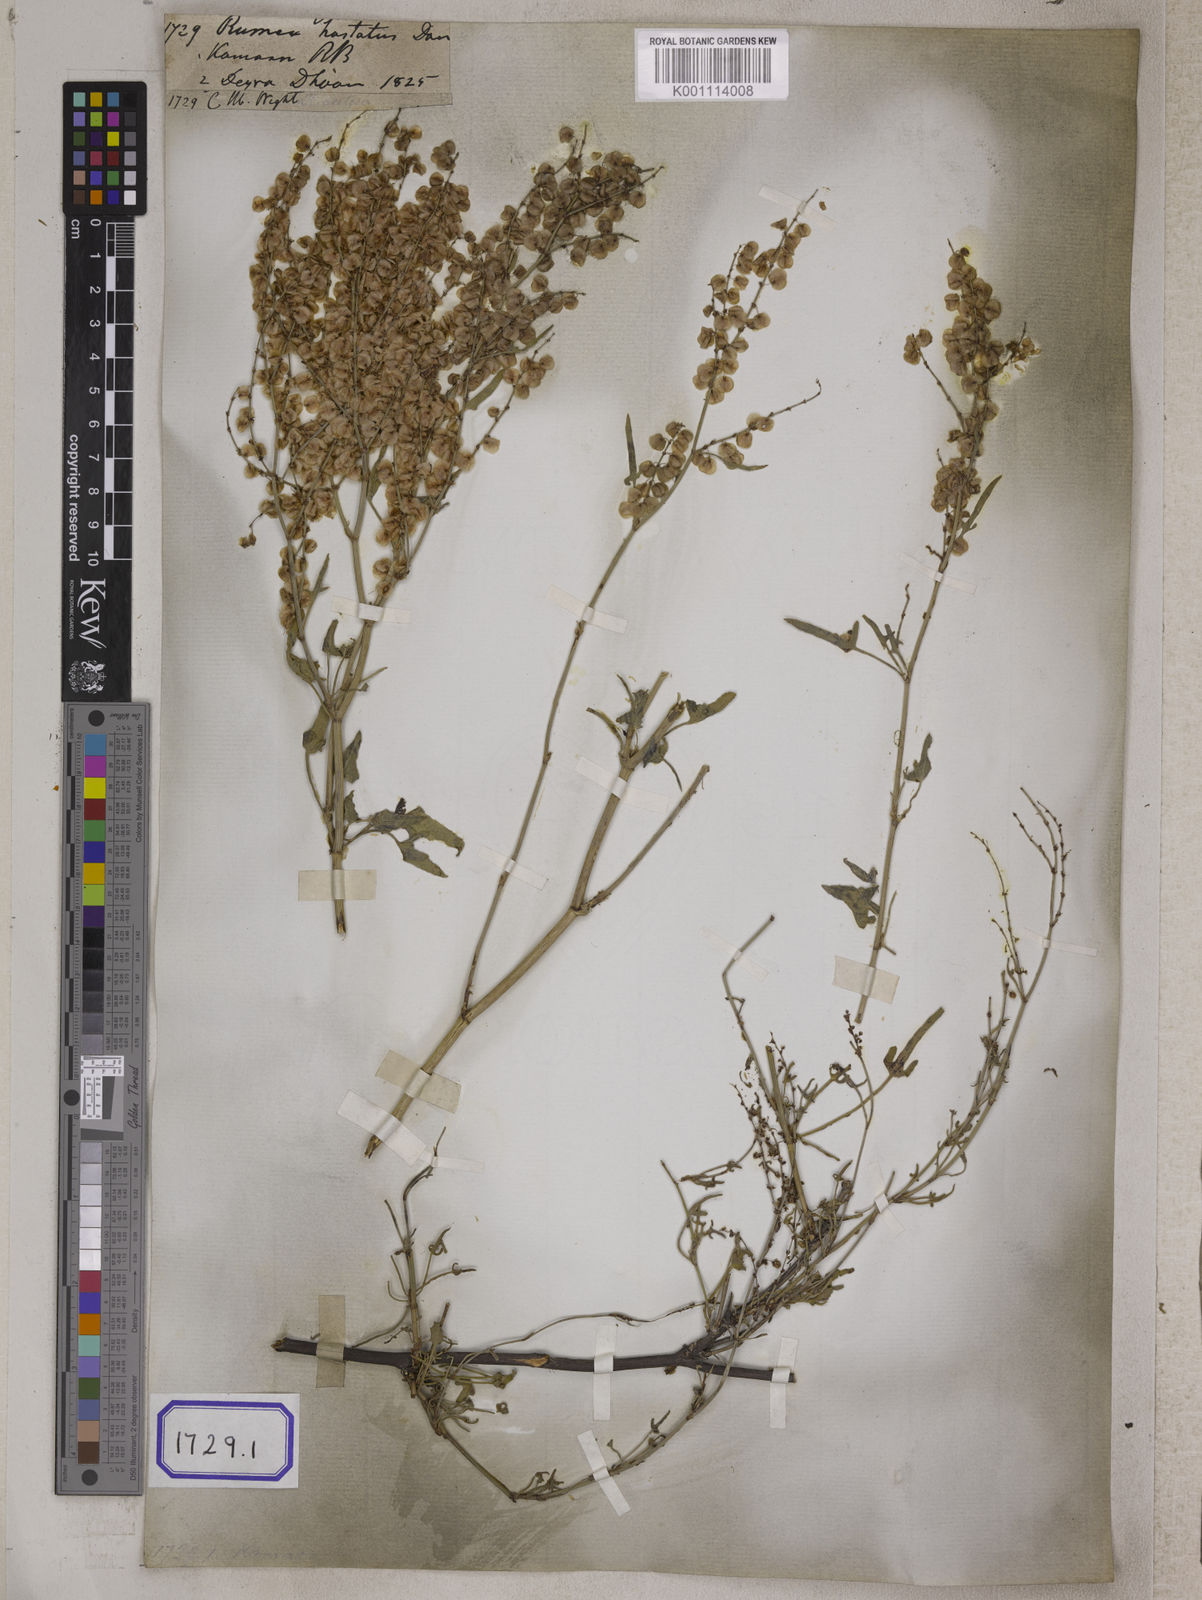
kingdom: Plantae
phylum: Tracheophyta
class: Magnoliopsida
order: Caryophyllales
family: Polygonaceae
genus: Rumex
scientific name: Rumex hastatus
